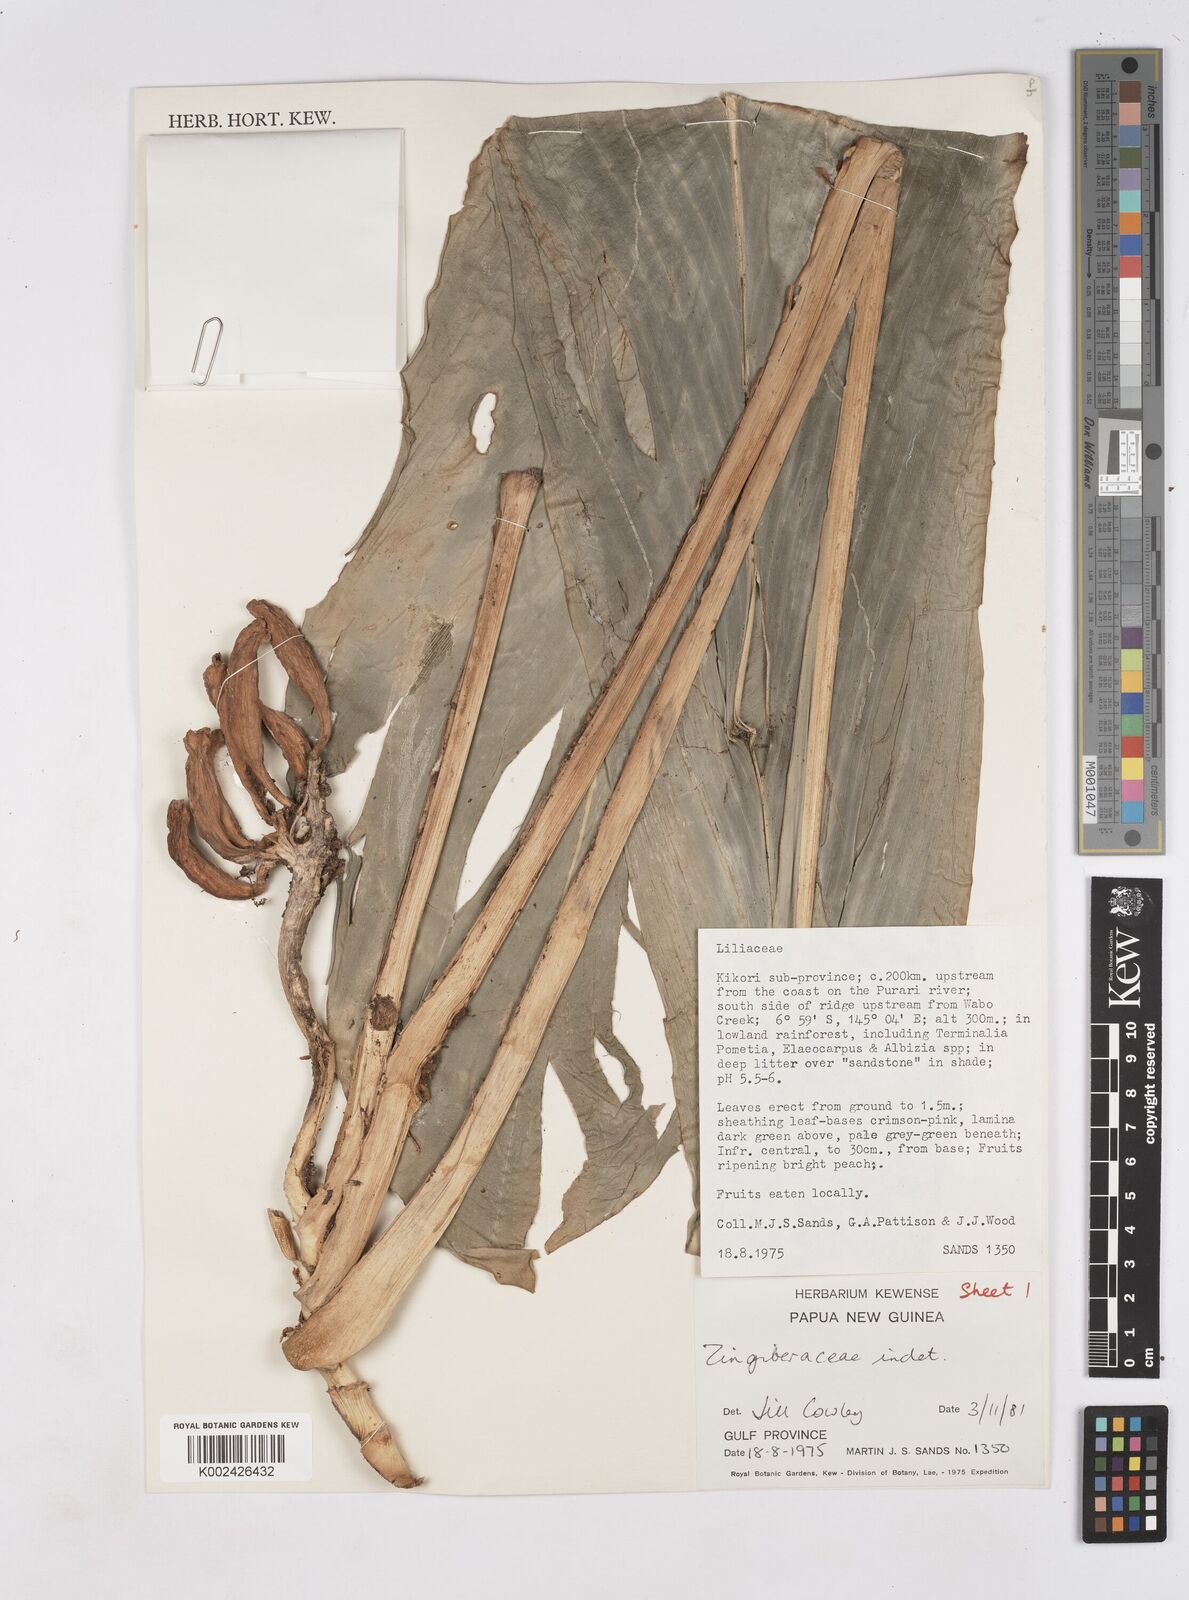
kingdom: Plantae
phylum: Tracheophyta
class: Liliopsida
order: Zingiberales
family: Zingiberaceae
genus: Riedelia
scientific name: Riedelia corallina
